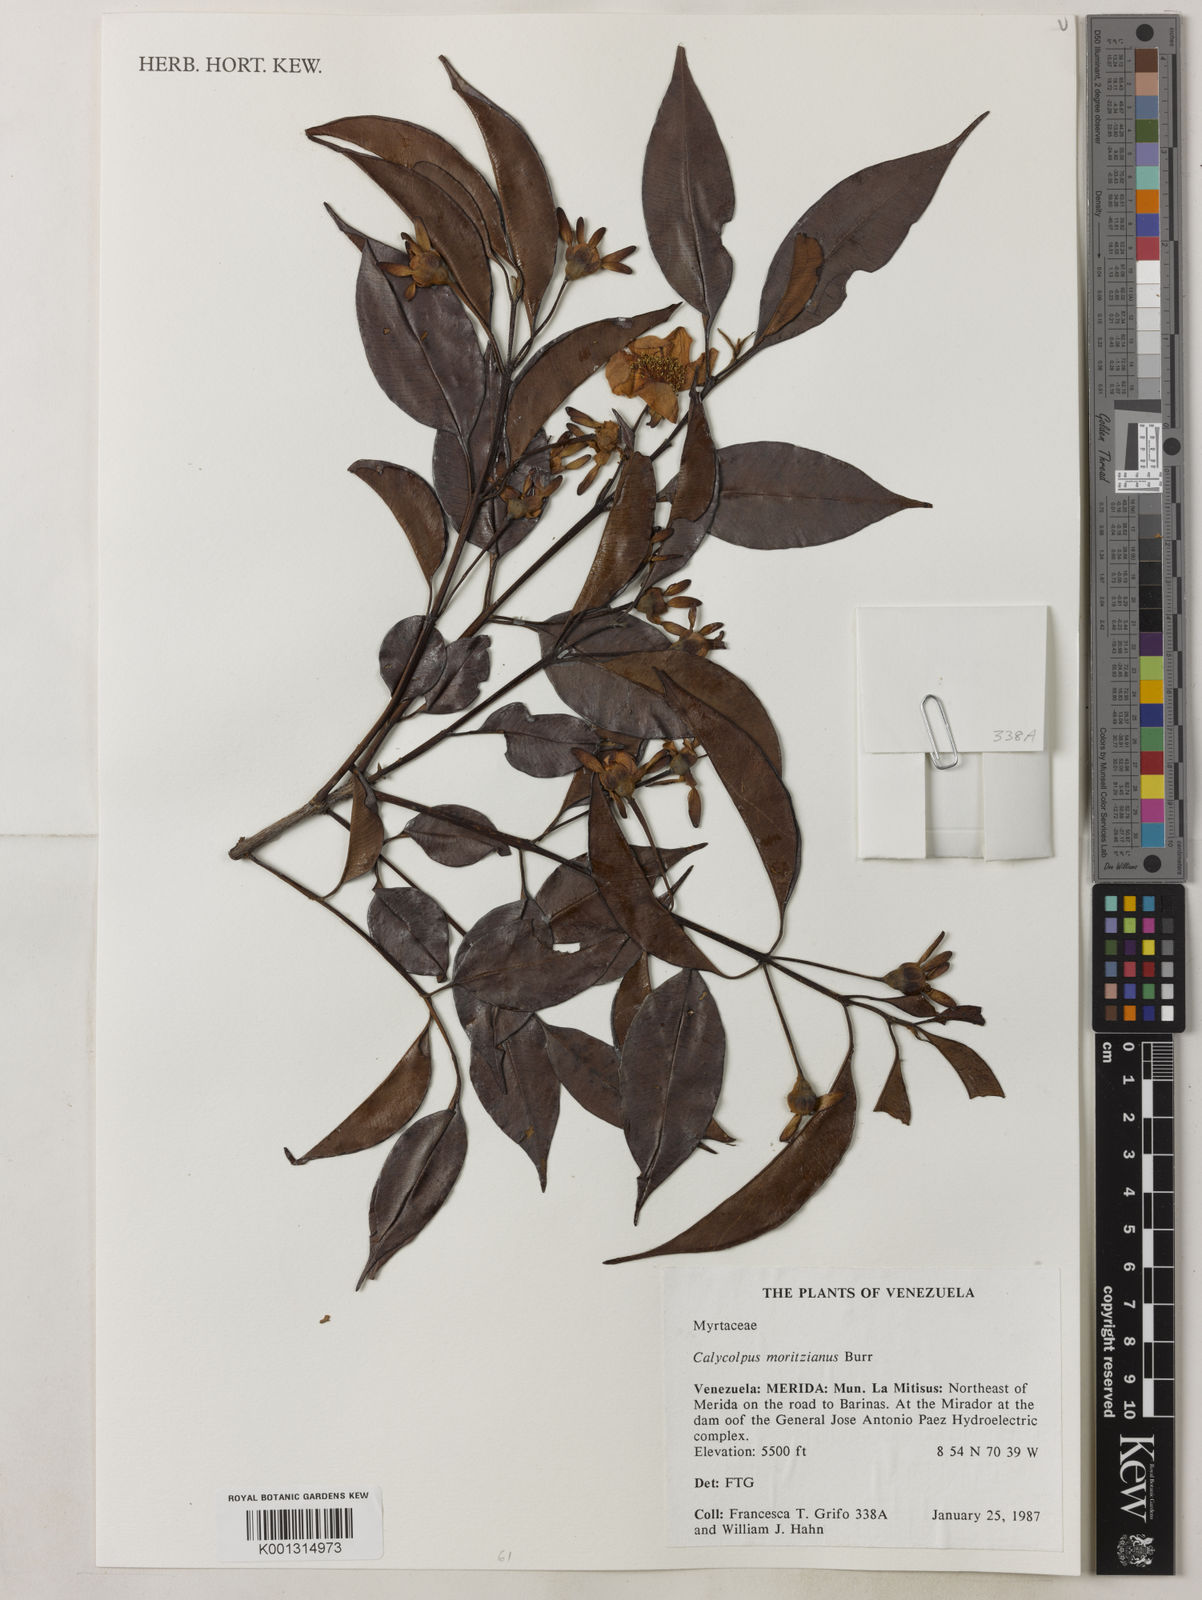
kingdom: Plantae
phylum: Tracheophyta
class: Magnoliopsida
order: Myrtales
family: Myrtaceae
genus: Calycolpus
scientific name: Calycolpus moritzianus
